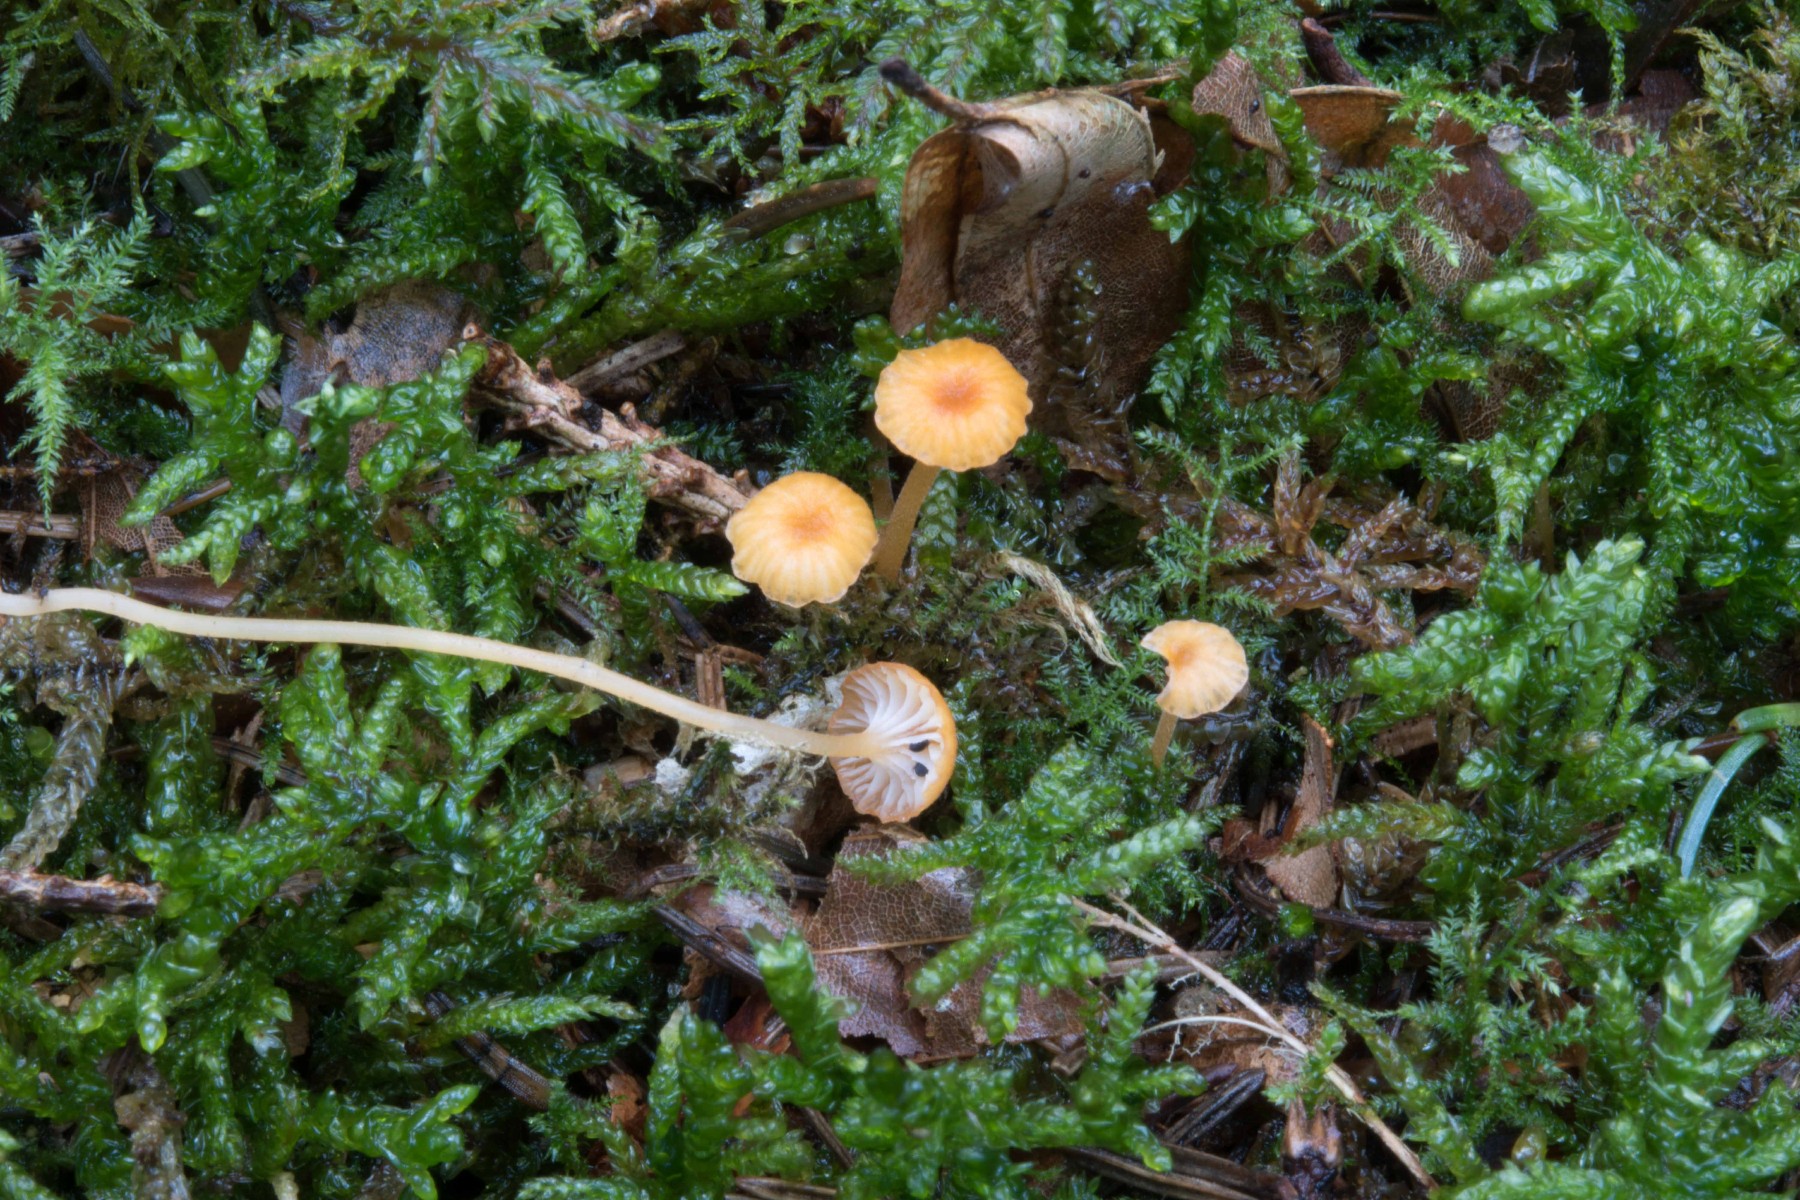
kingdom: Fungi
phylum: Basidiomycota
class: Agaricomycetes
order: Hymenochaetales
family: Rickenellaceae
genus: Rickenella
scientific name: Rickenella fibula
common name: orange mosnavlehat
